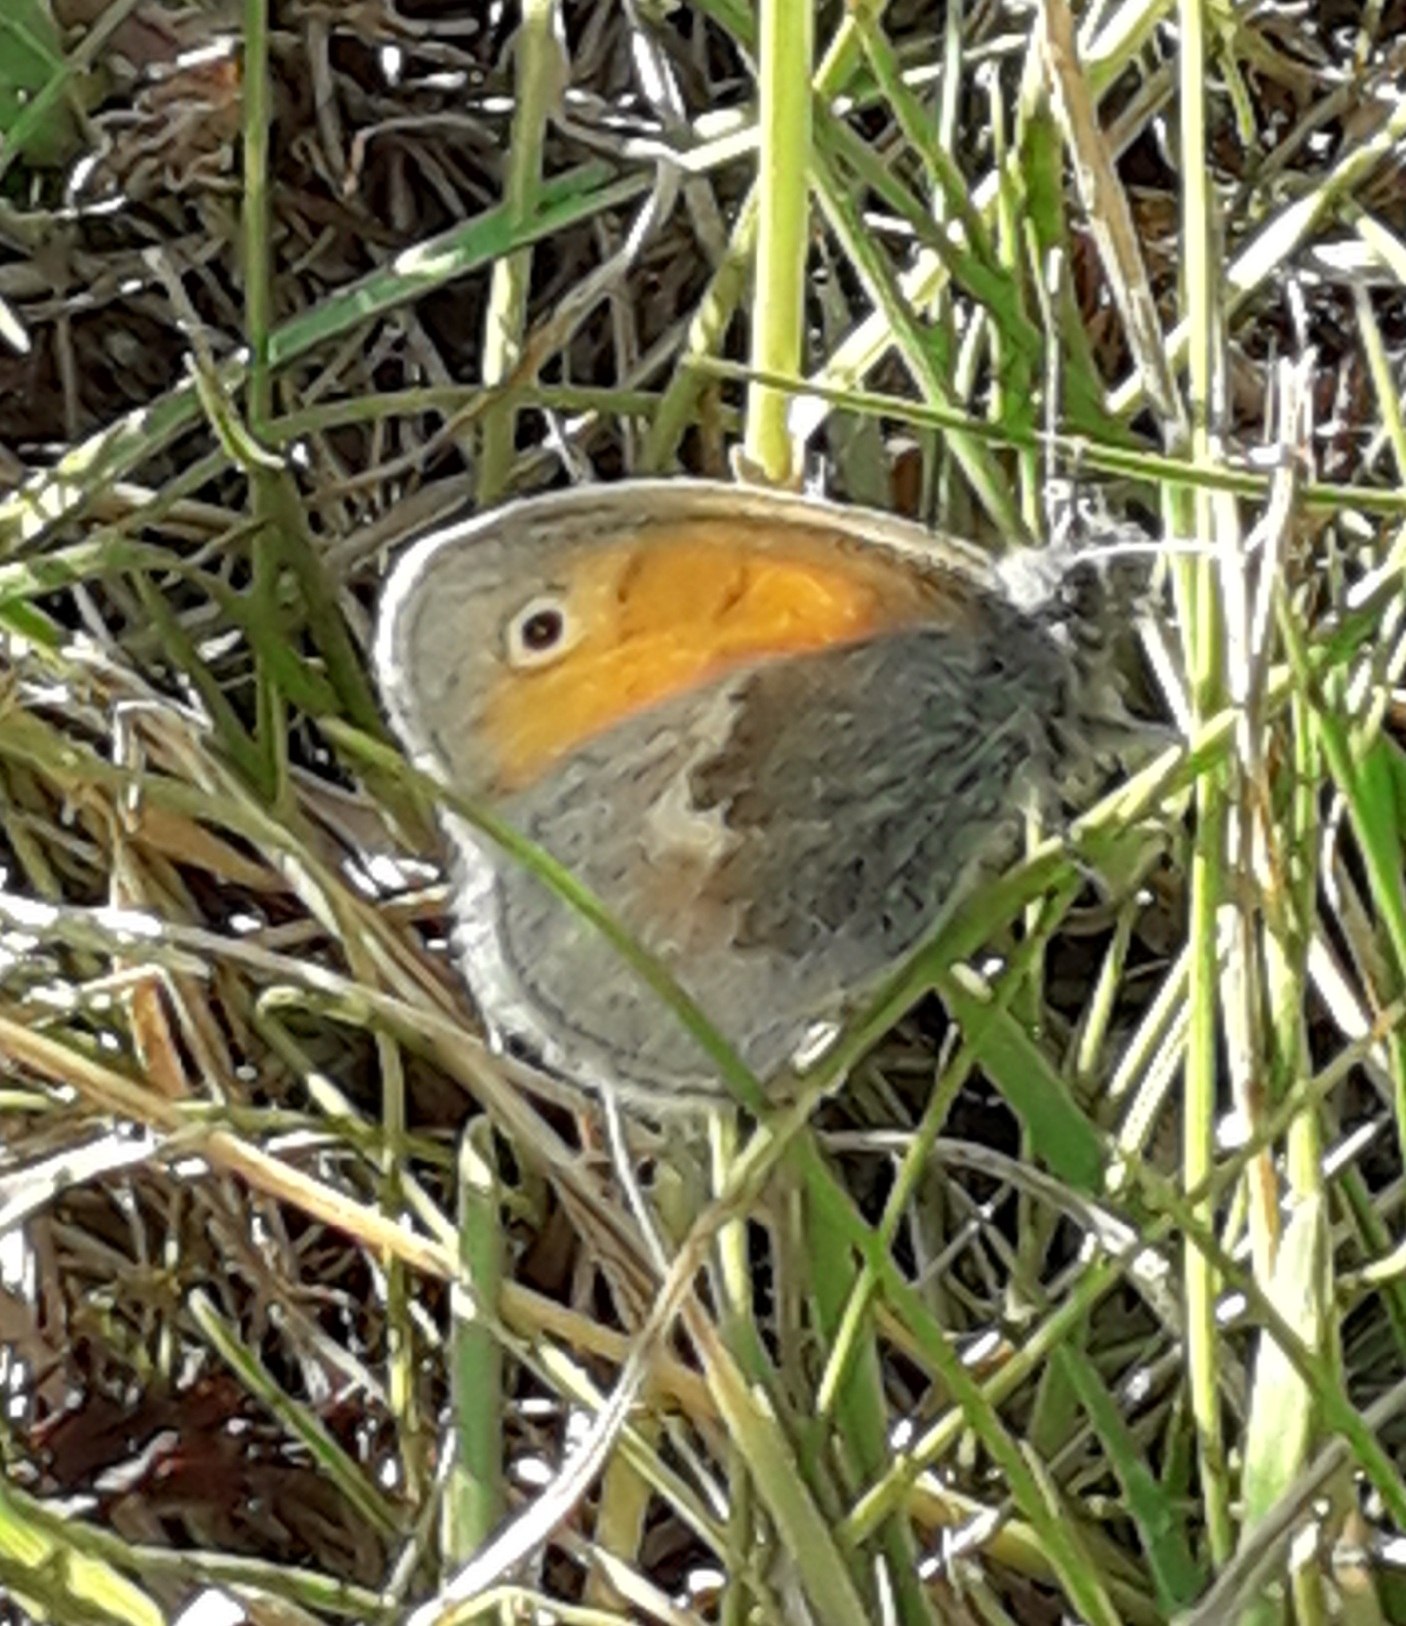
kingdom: Animalia
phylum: Arthropoda
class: Insecta
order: Lepidoptera
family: Nymphalidae
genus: Coenonympha
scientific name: Coenonympha pamphilus
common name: Okkergul randøje
